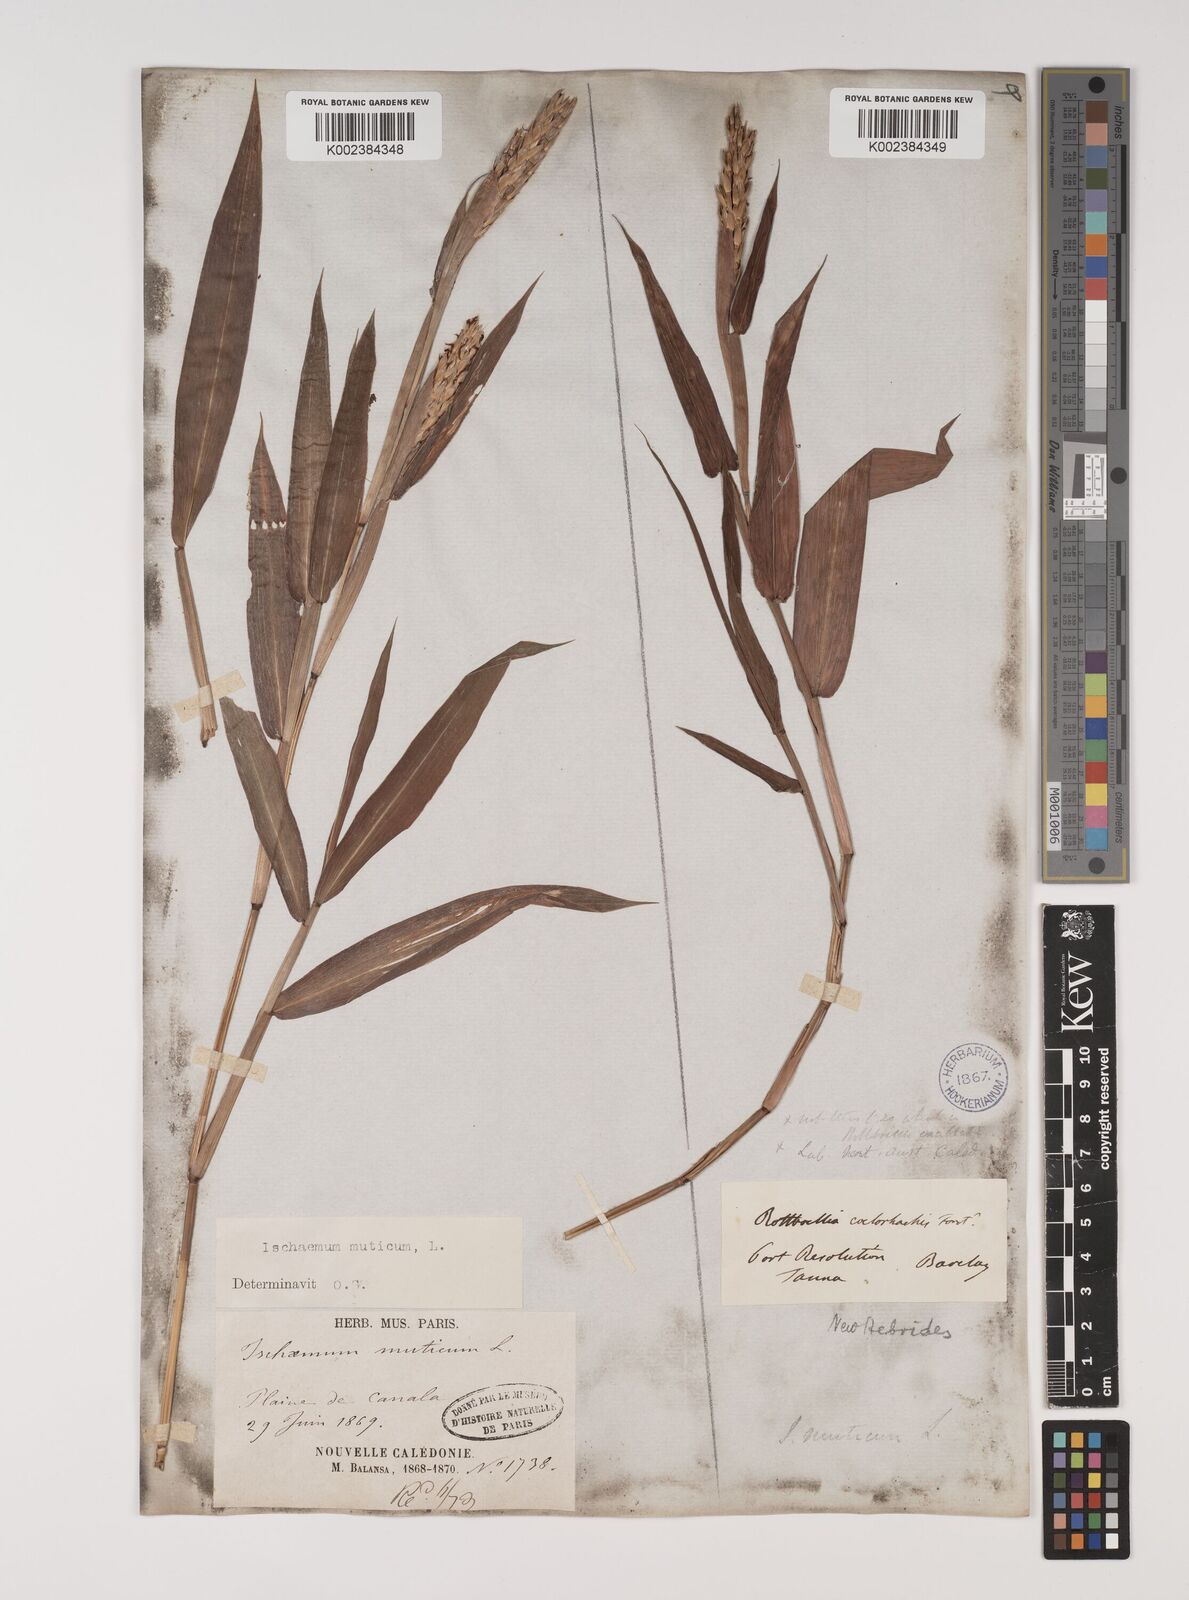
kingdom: Plantae
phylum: Tracheophyta
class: Liliopsida
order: Poales
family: Poaceae
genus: Ischaemum
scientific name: Ischaemum muticum
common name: Drought grass
